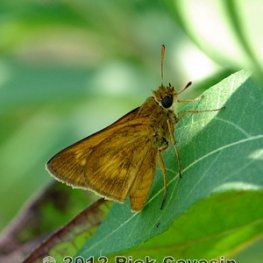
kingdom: Animalia
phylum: Arthropoda
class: Insecta
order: Lepidoptera
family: Hesperiidae
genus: Euphyes
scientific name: Euphyes conspicua
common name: Black Dash
